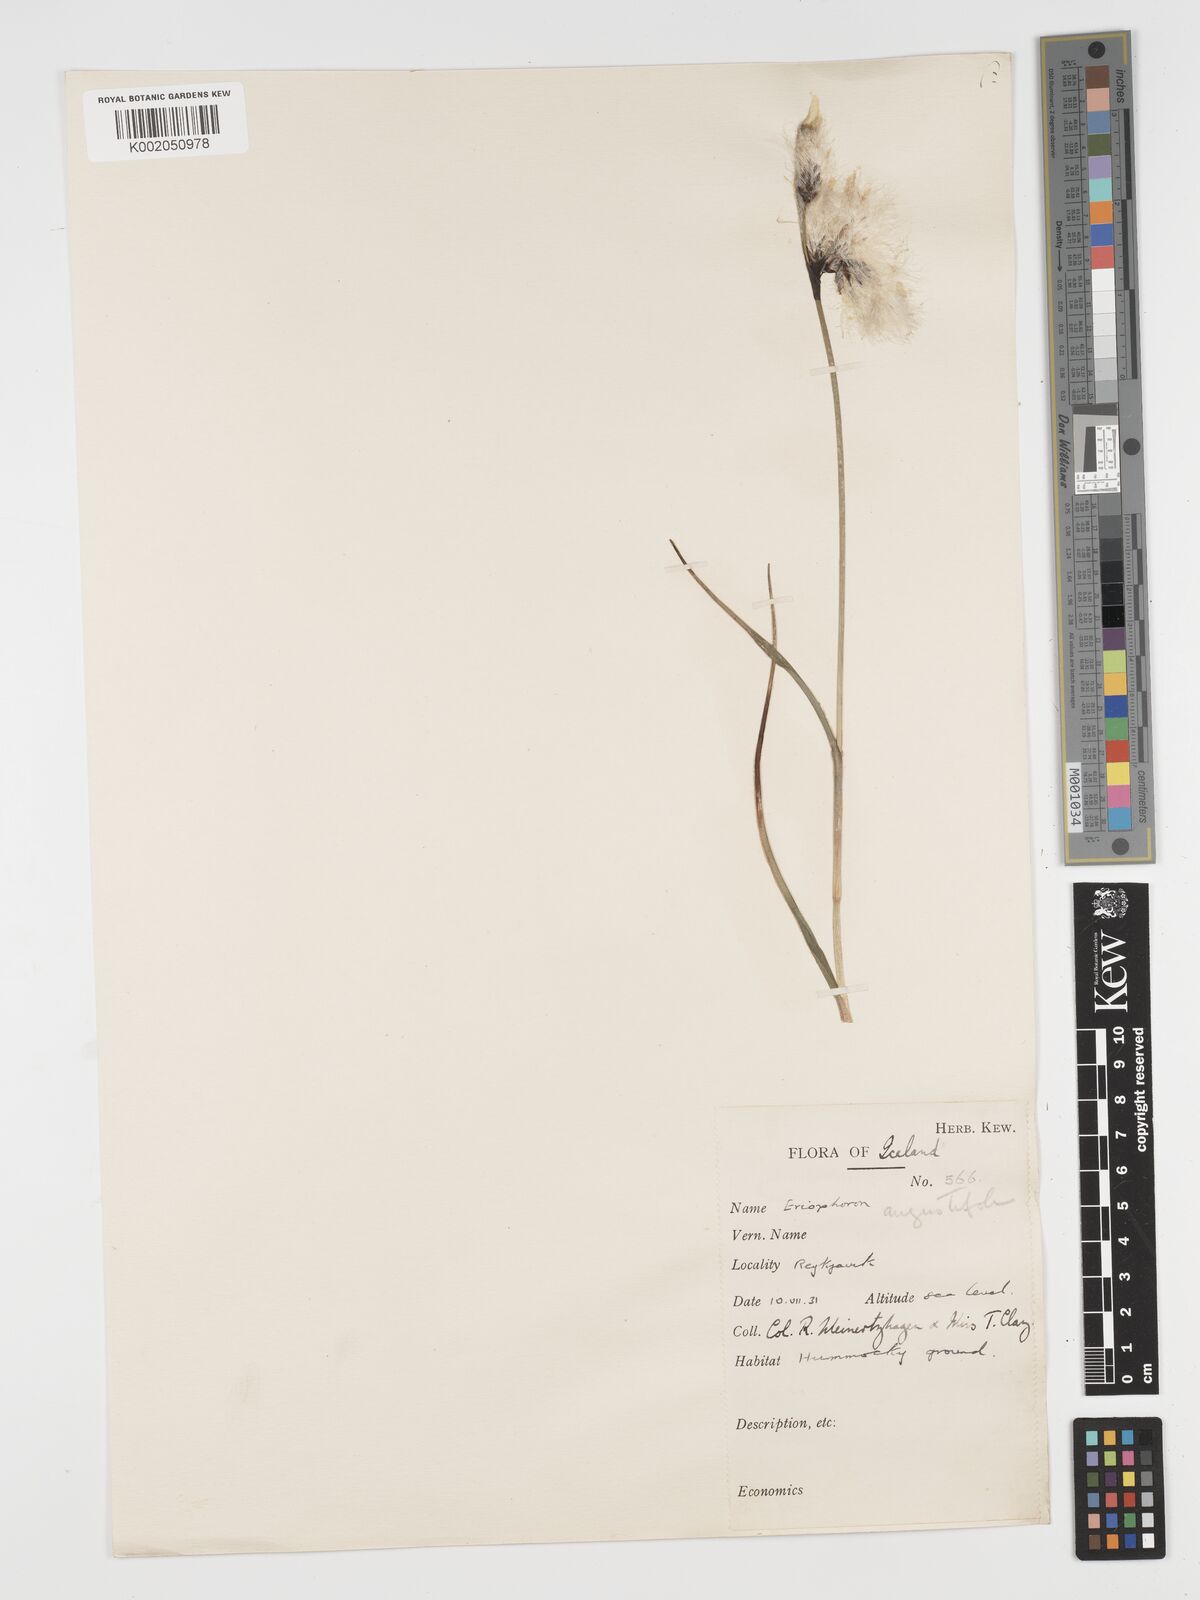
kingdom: Plantae
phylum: Tracheophyta
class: Liliopsida
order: Poales
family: Cyperaceae
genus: Eriophorum
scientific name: Eriophorum angustifolium
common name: Common cottongrass
